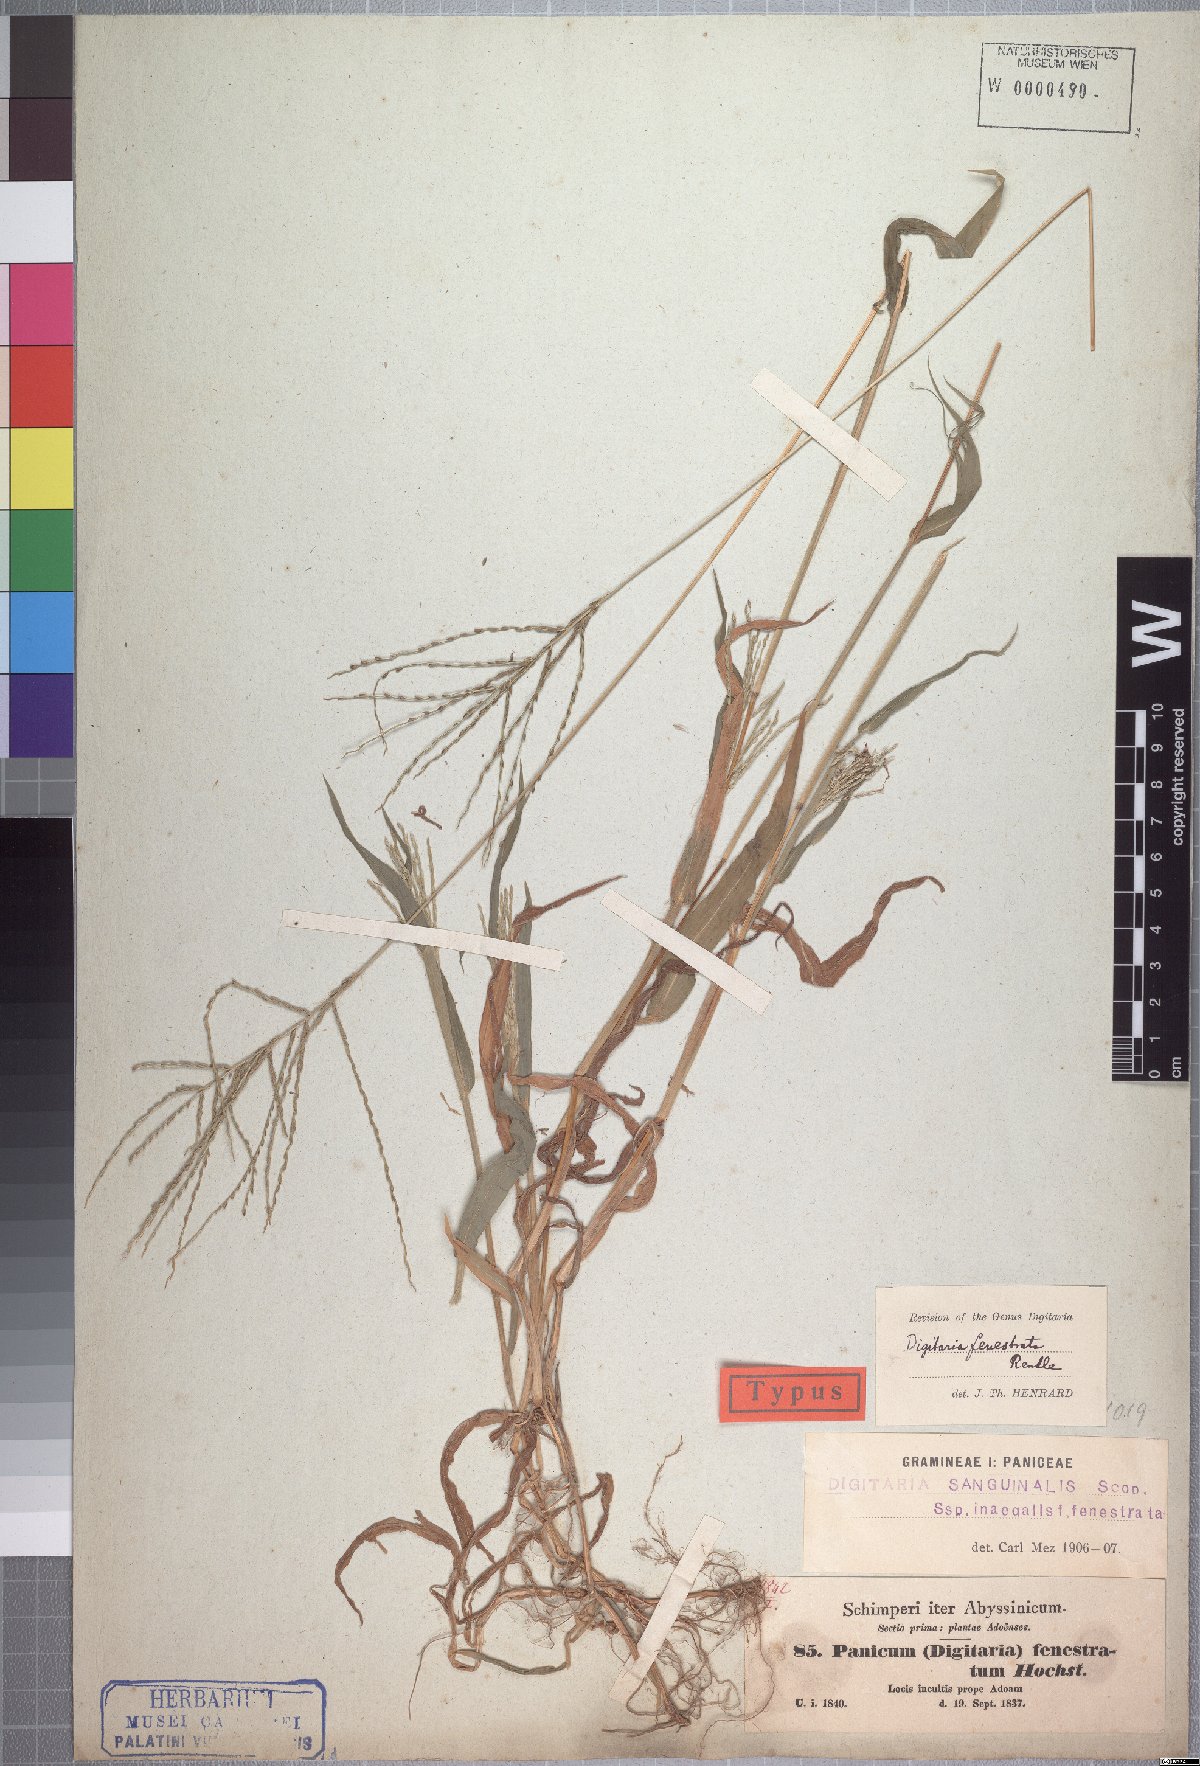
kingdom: Plantae
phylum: Tracheophyta
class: Liliopsida
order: Poales
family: Poaceae
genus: Digitaria
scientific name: Digitaria velutina
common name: Long-plume finger grass
